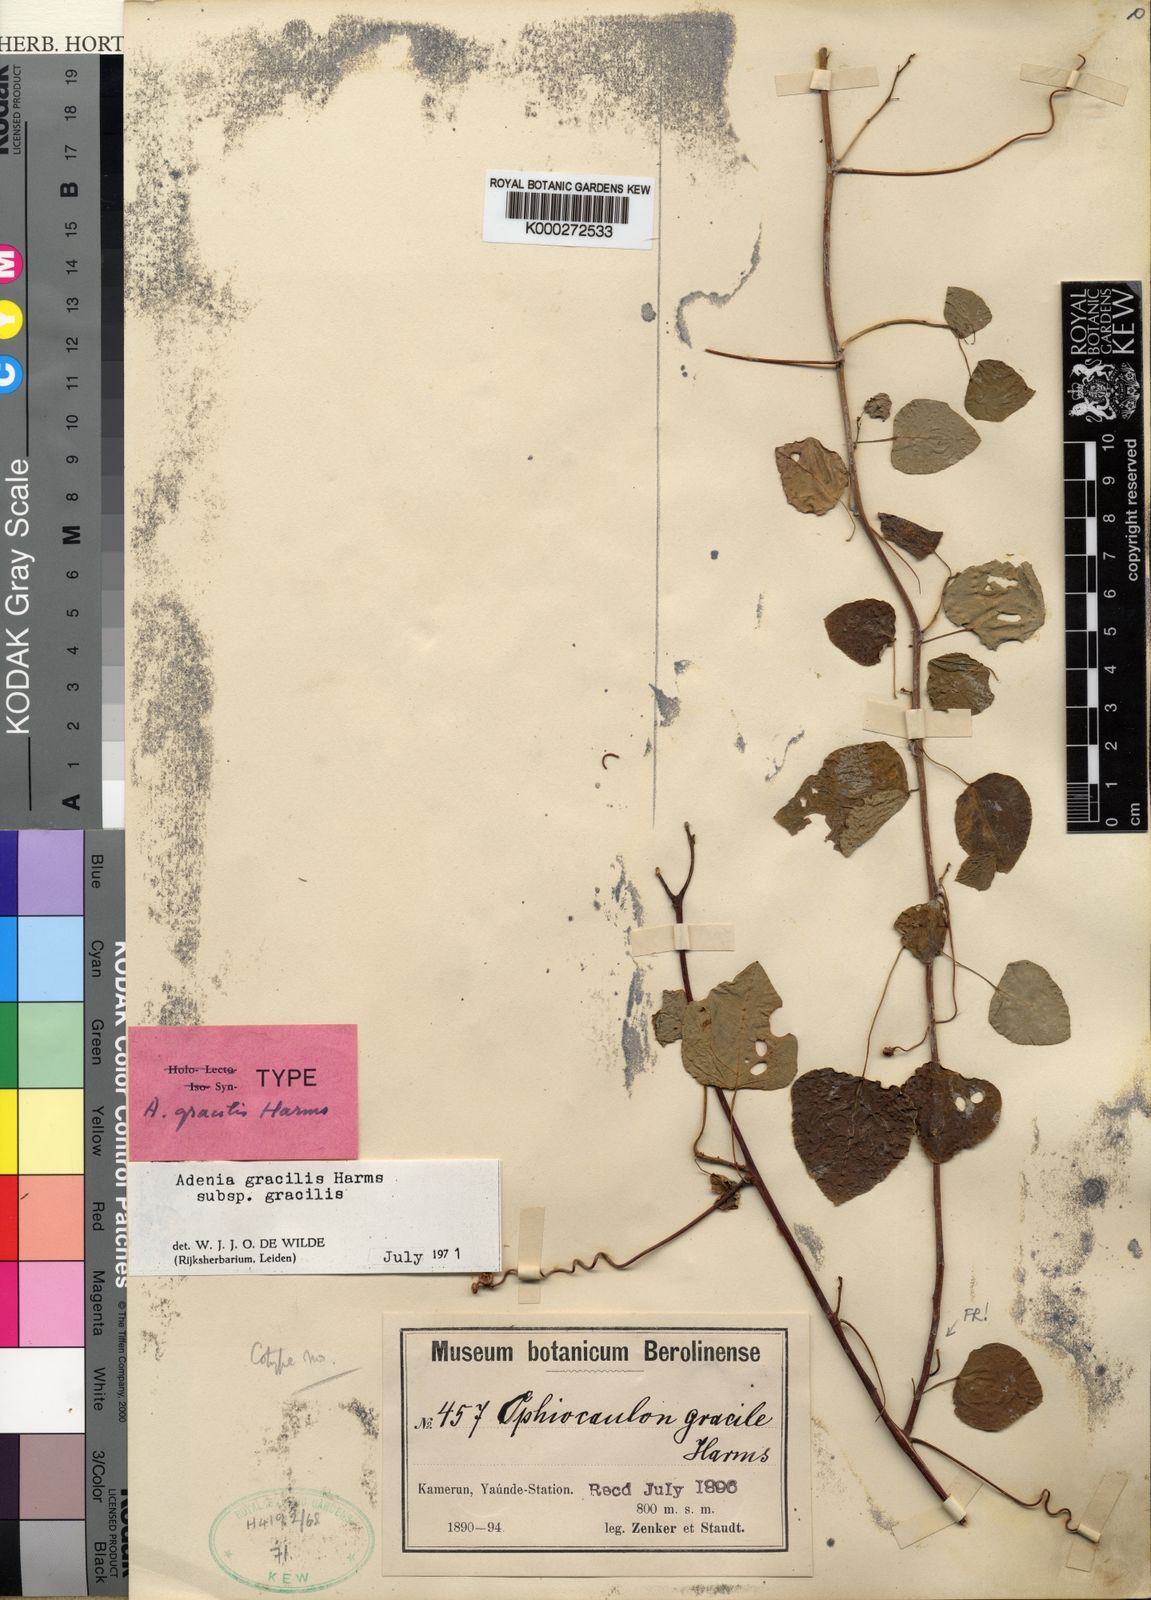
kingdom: Plantae
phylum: Tracheophyta
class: Magnoliopsida
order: Malpighiales
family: Passifloraceae
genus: Adenia
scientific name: Adenia cissampeloides
